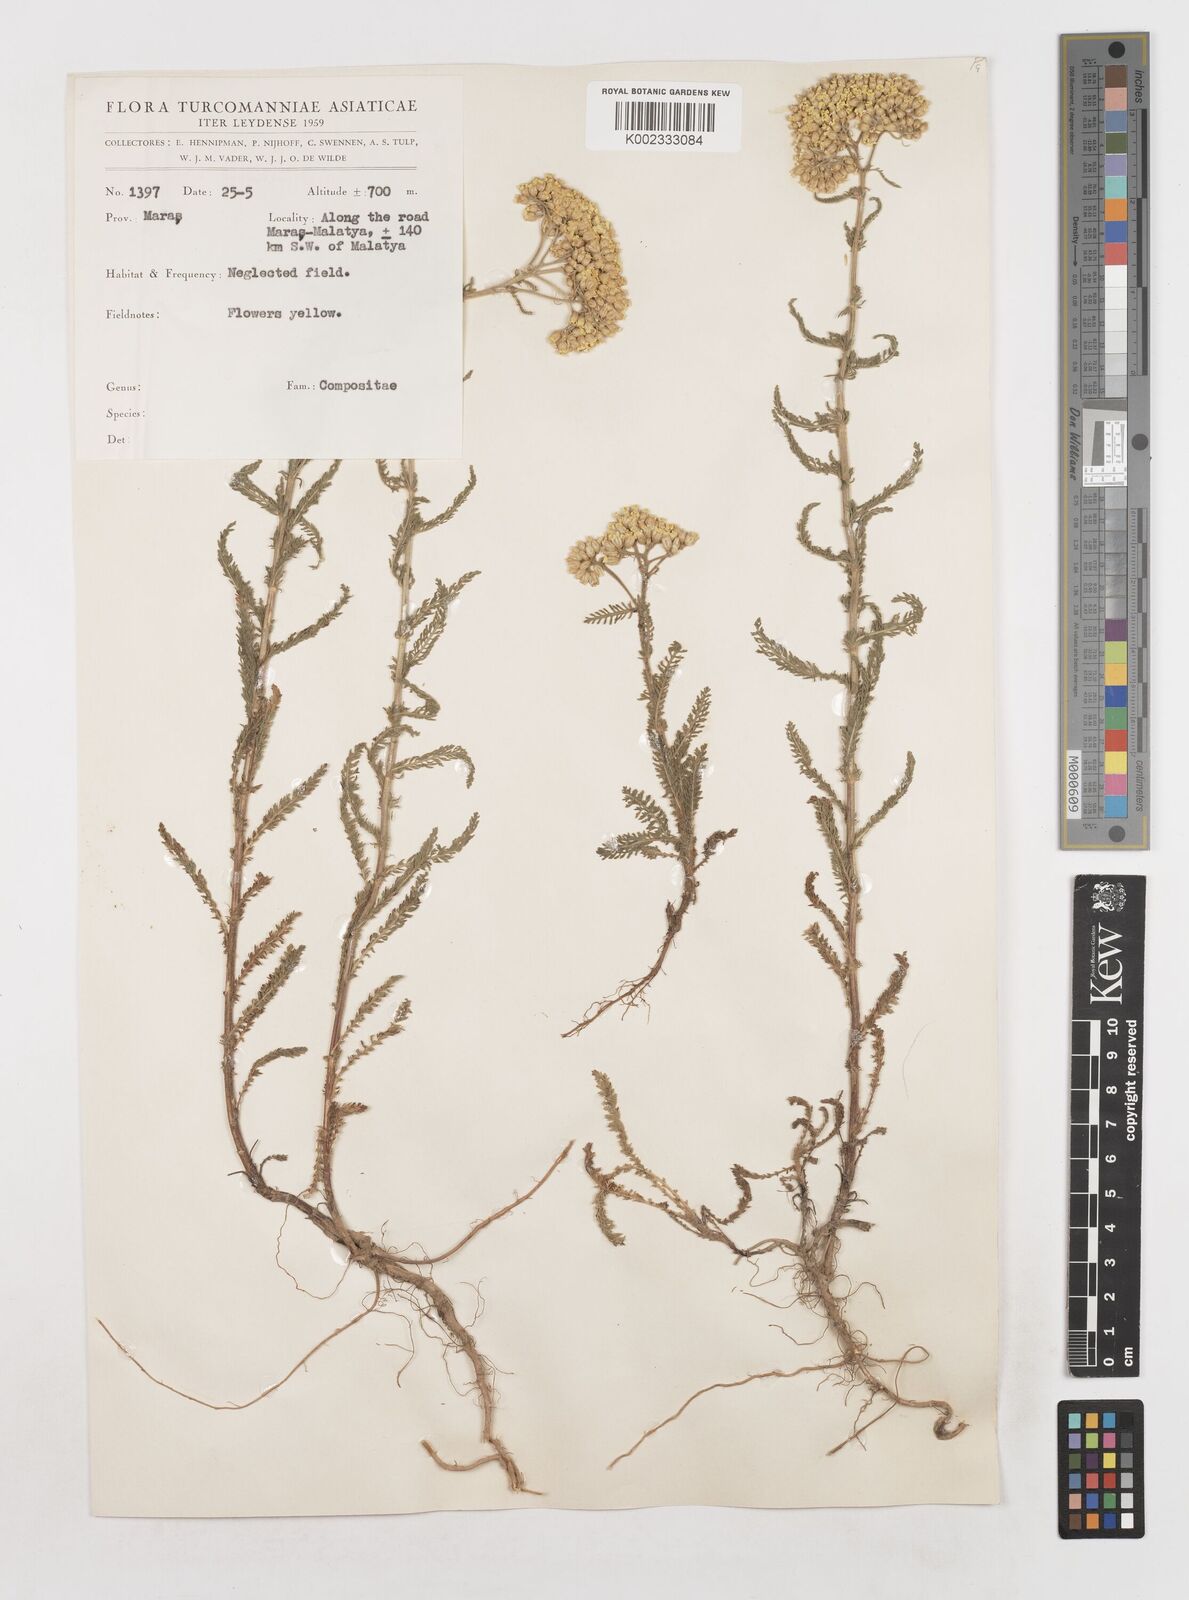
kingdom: Plantae
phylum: Tracheophyta
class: Magnoliopsida
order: Asterales
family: Asteraceae
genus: Achillea
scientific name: Achillea
